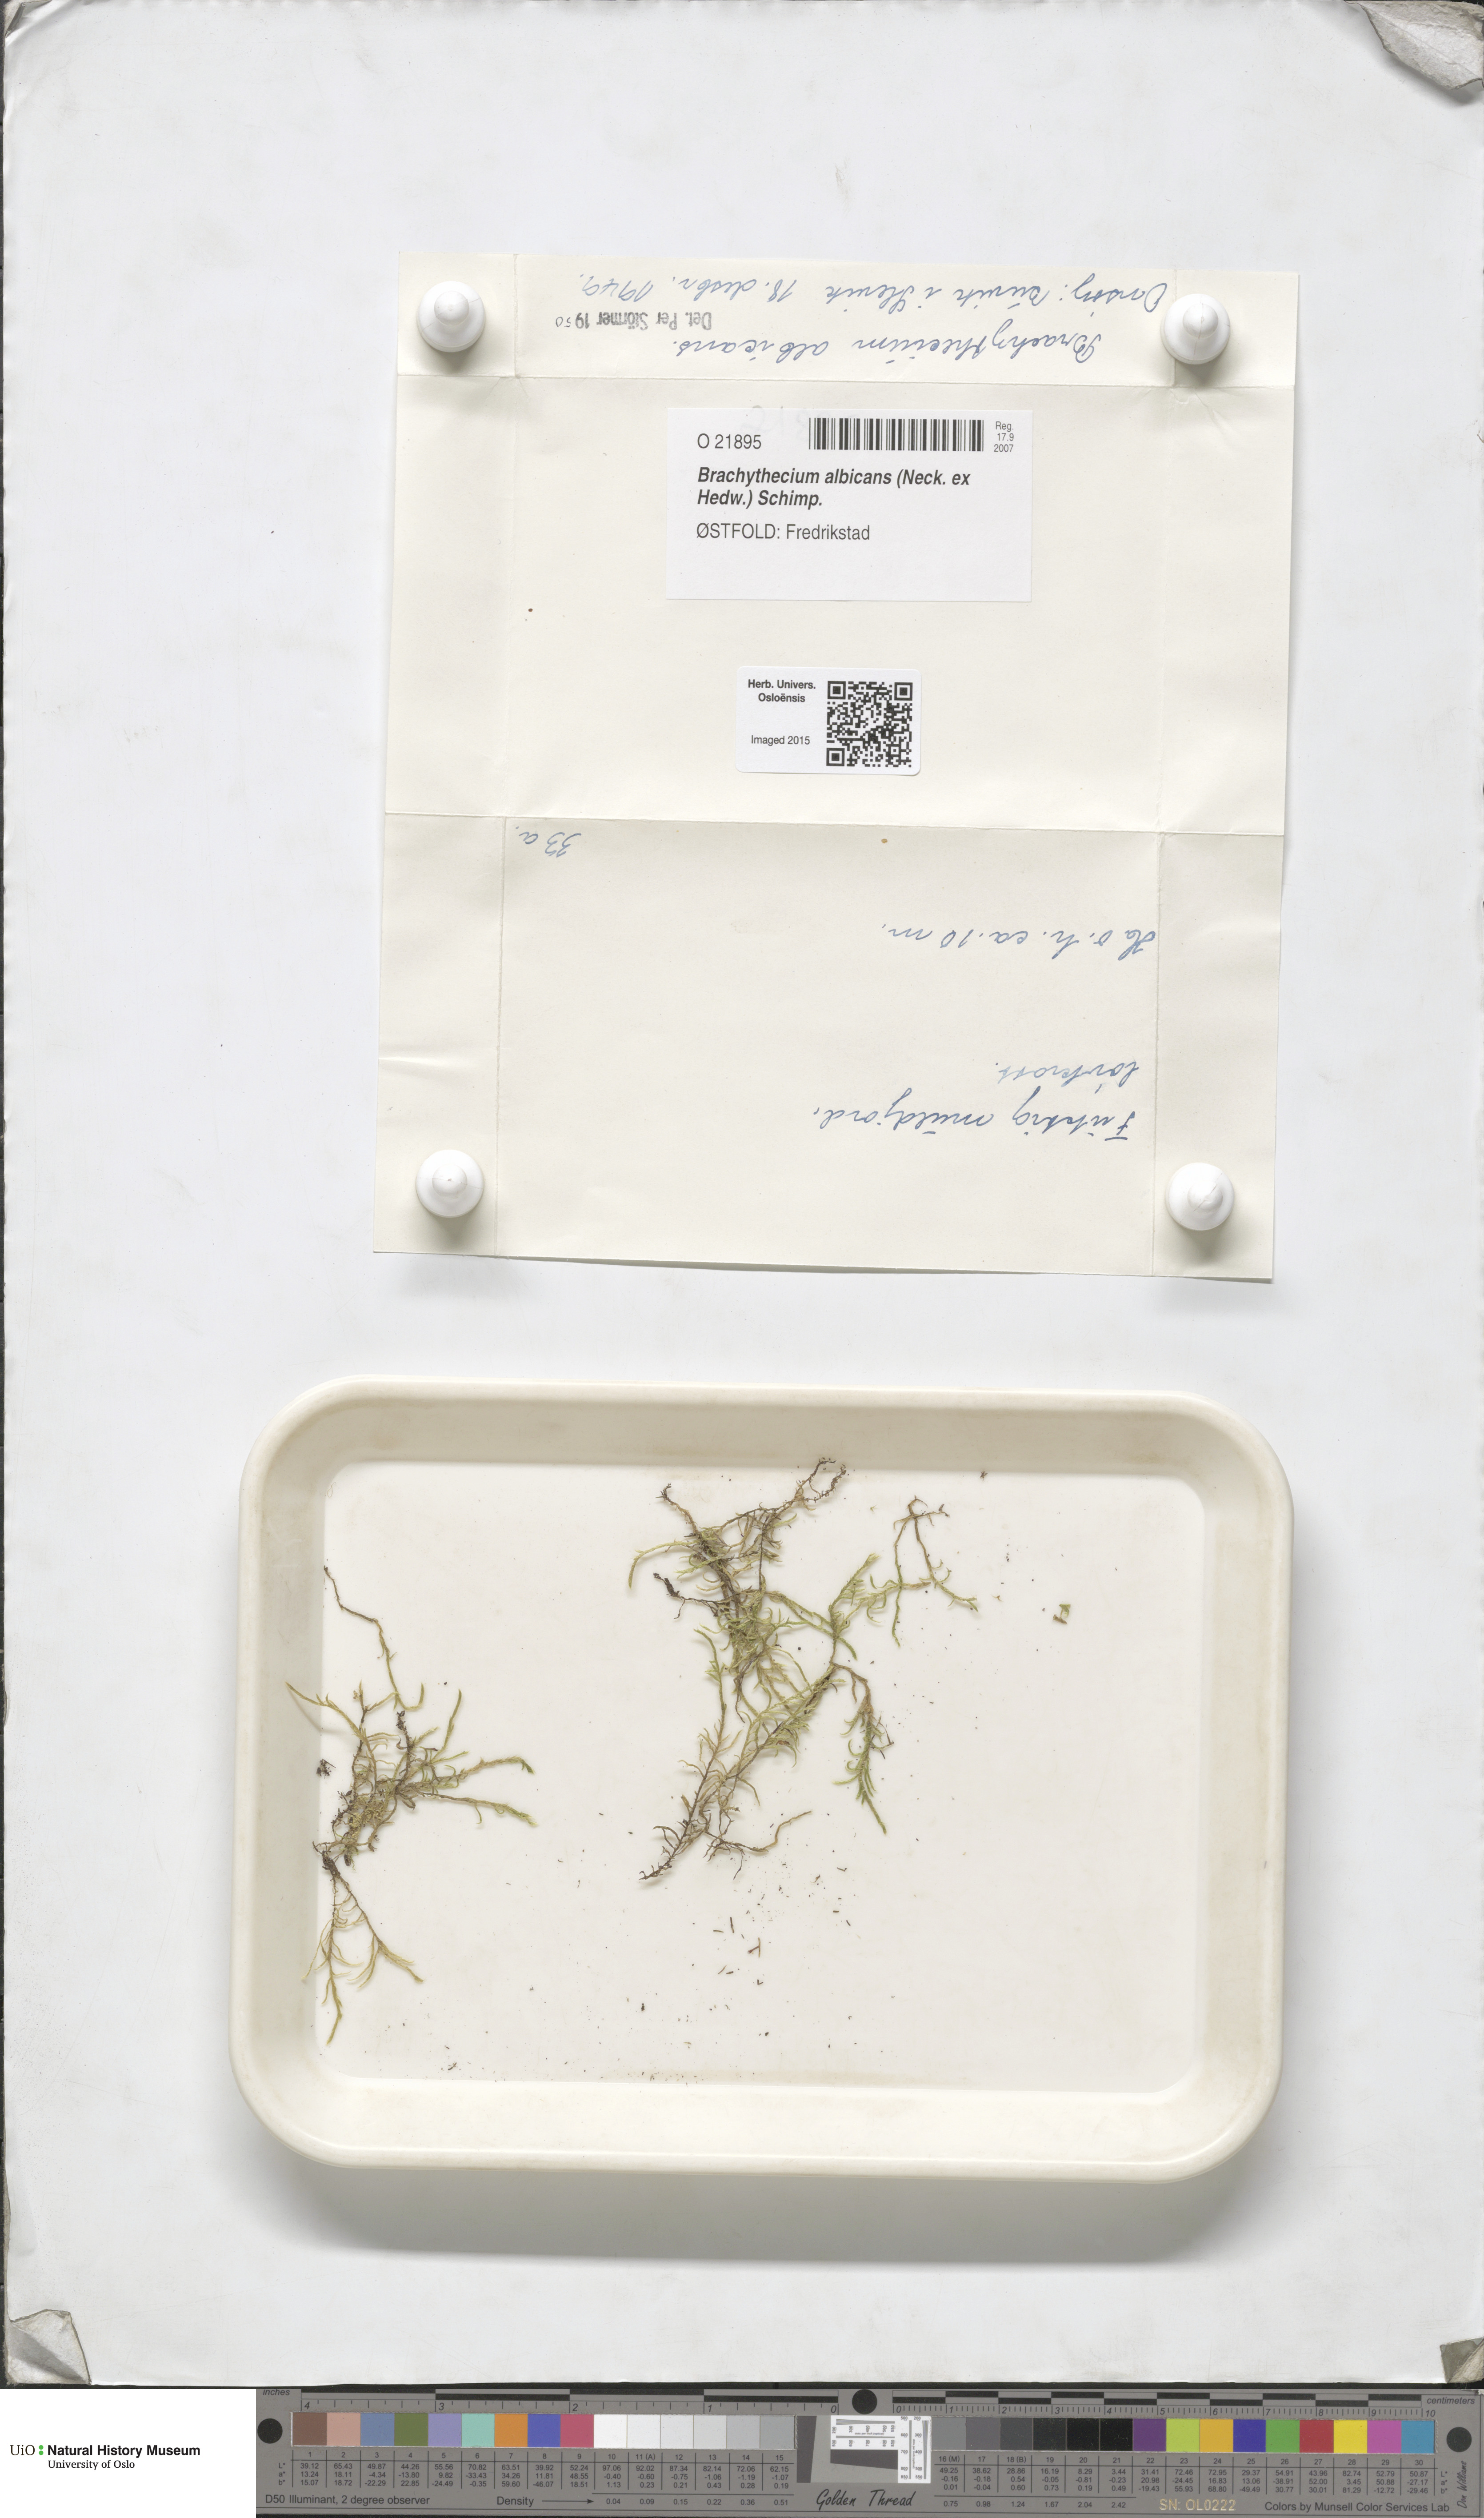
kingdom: Plantae
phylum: Bryophyta
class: Bryopsida
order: Hypnales
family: Brachytheciaceae
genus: Brachythecium
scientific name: Brachythecium albicans
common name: Whitish ragged moss
